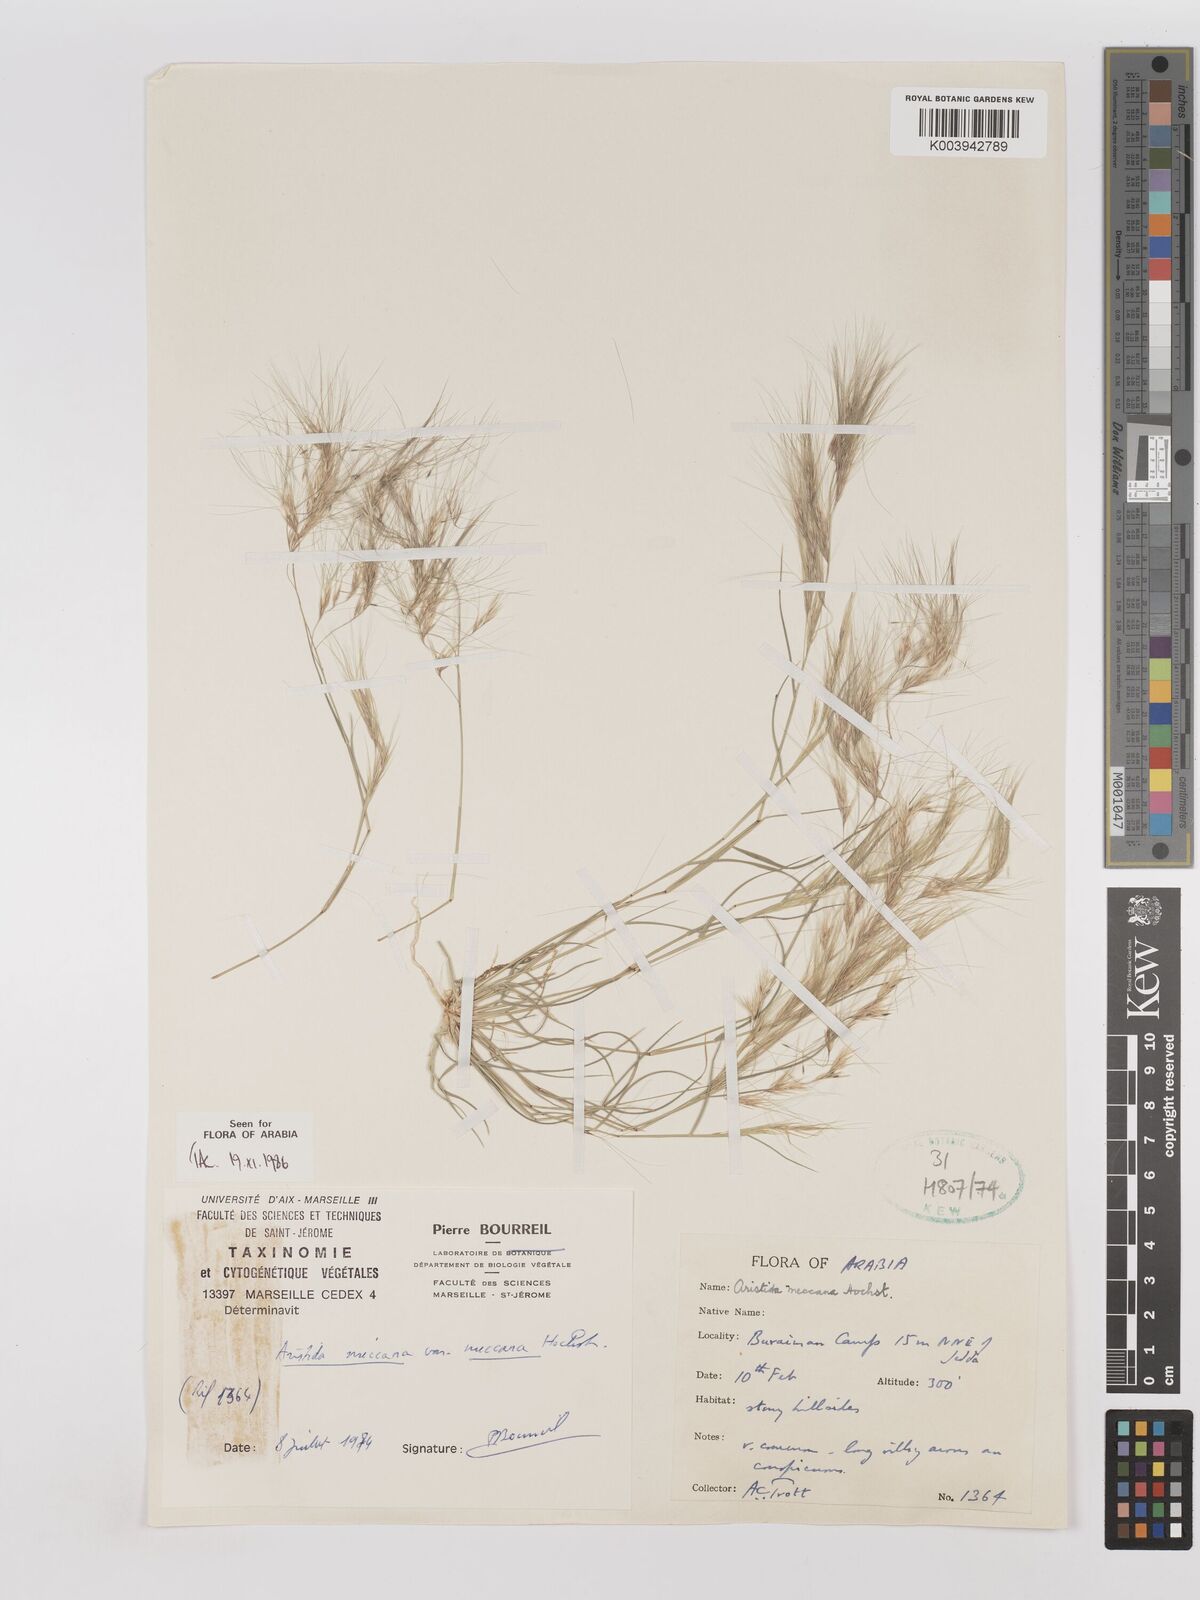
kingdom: Plantae
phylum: Tracheophyta
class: Liliopsida
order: Poales
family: Poaceae
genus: Aristida
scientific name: Aristida mutabilis
